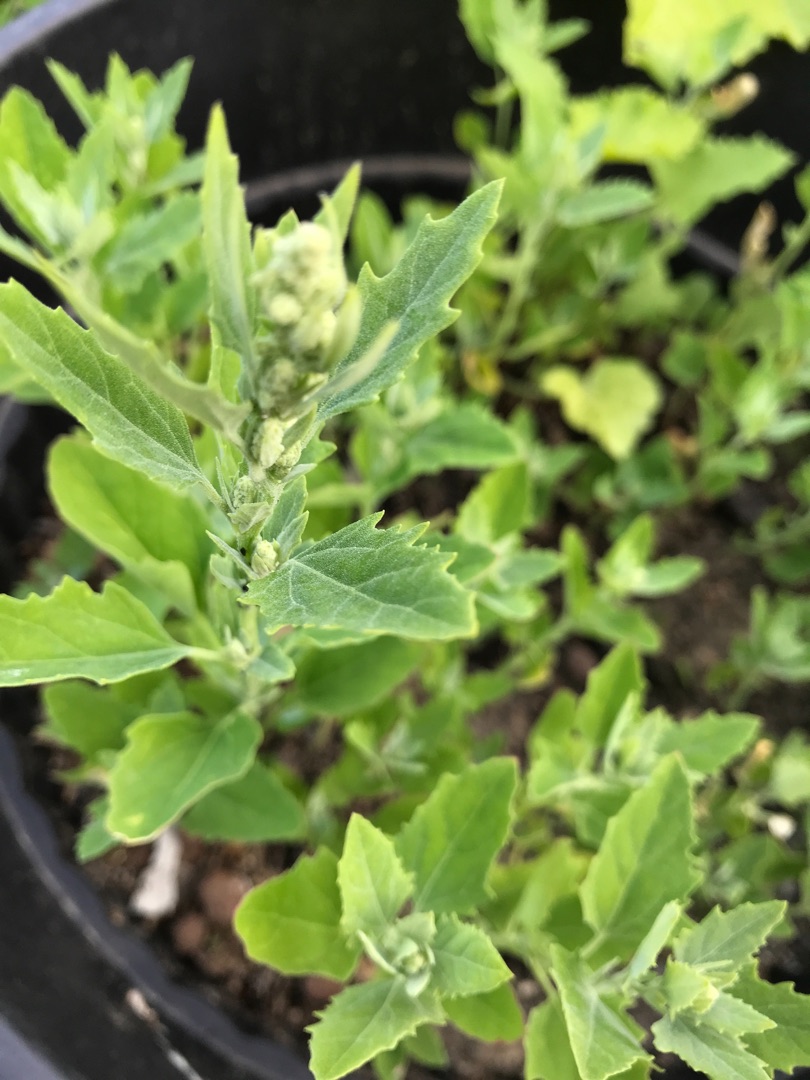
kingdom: Plantae
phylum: Tracheophyta
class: Magnoliopsida
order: Caryophyllales
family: Amaranthaceae
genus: Chenopodium
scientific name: Chenopodium album
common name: Hvidmelet gåsefod
